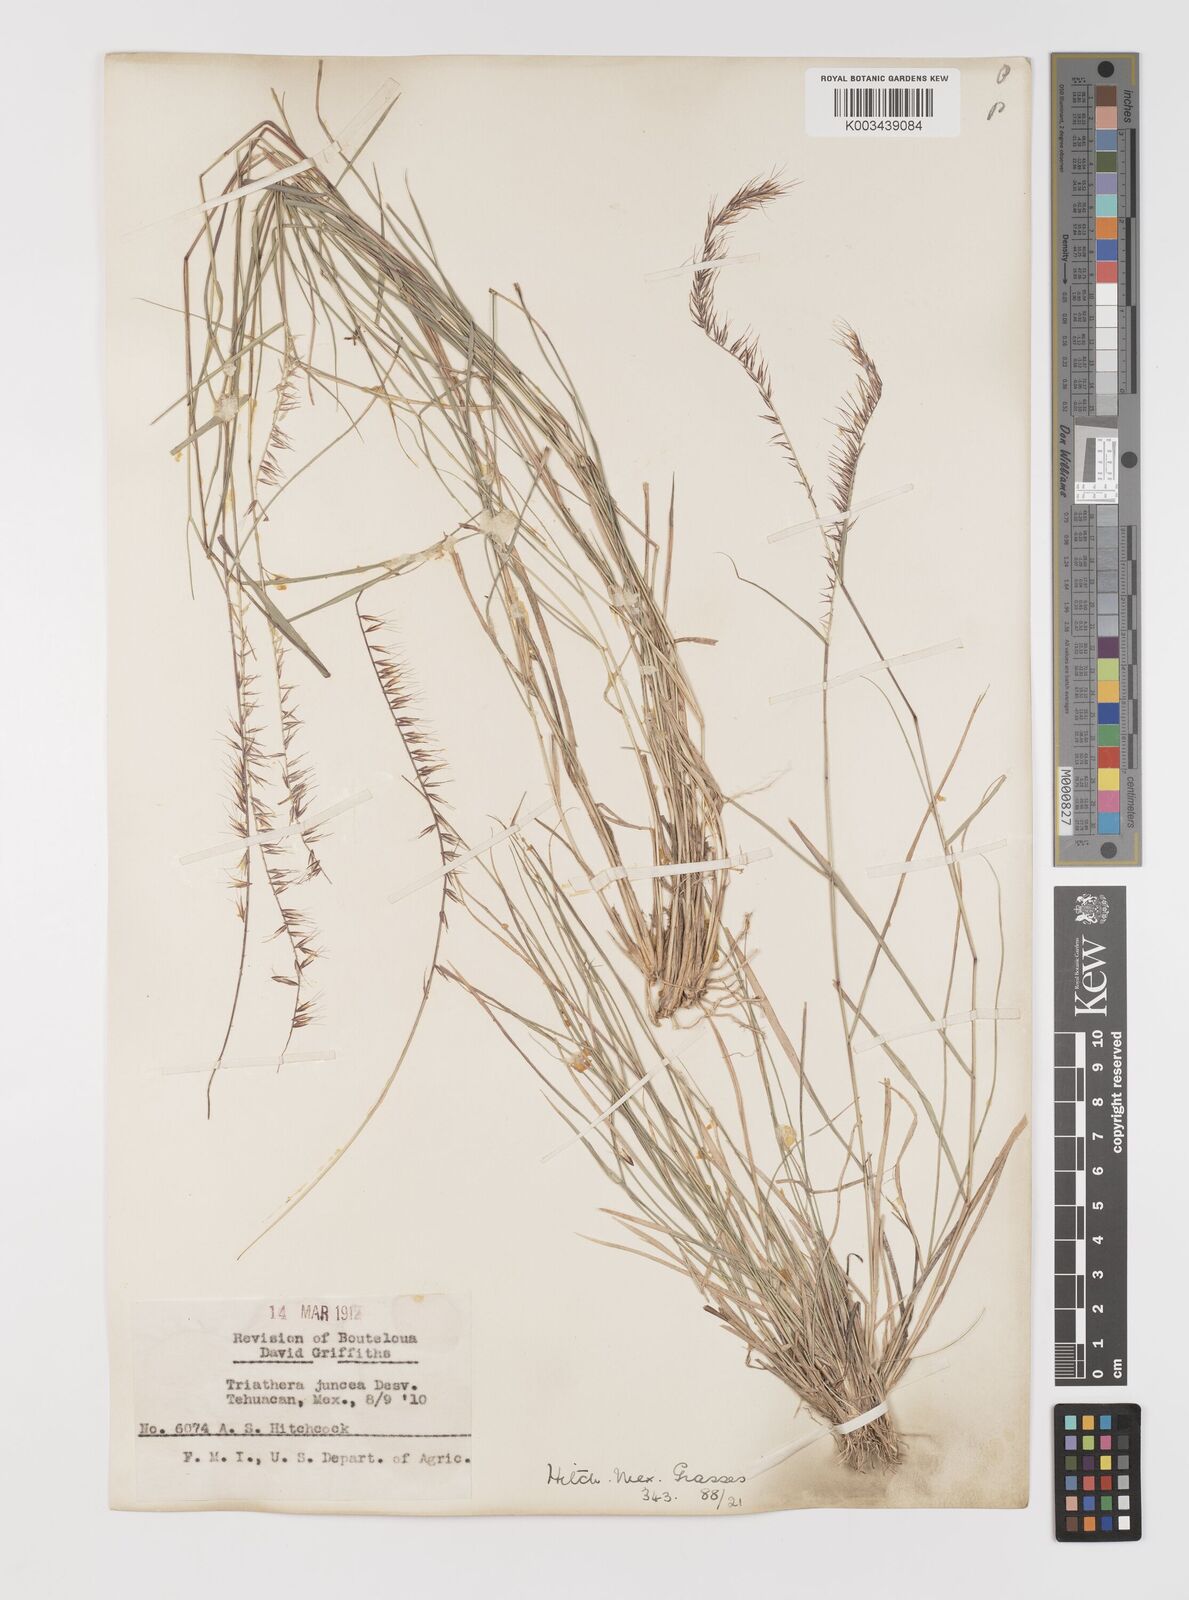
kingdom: Plantae
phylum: Tracheophyta
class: Liliopsida
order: Poales
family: Poaceae
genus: Bouteloua
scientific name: Bouteloua triaena
